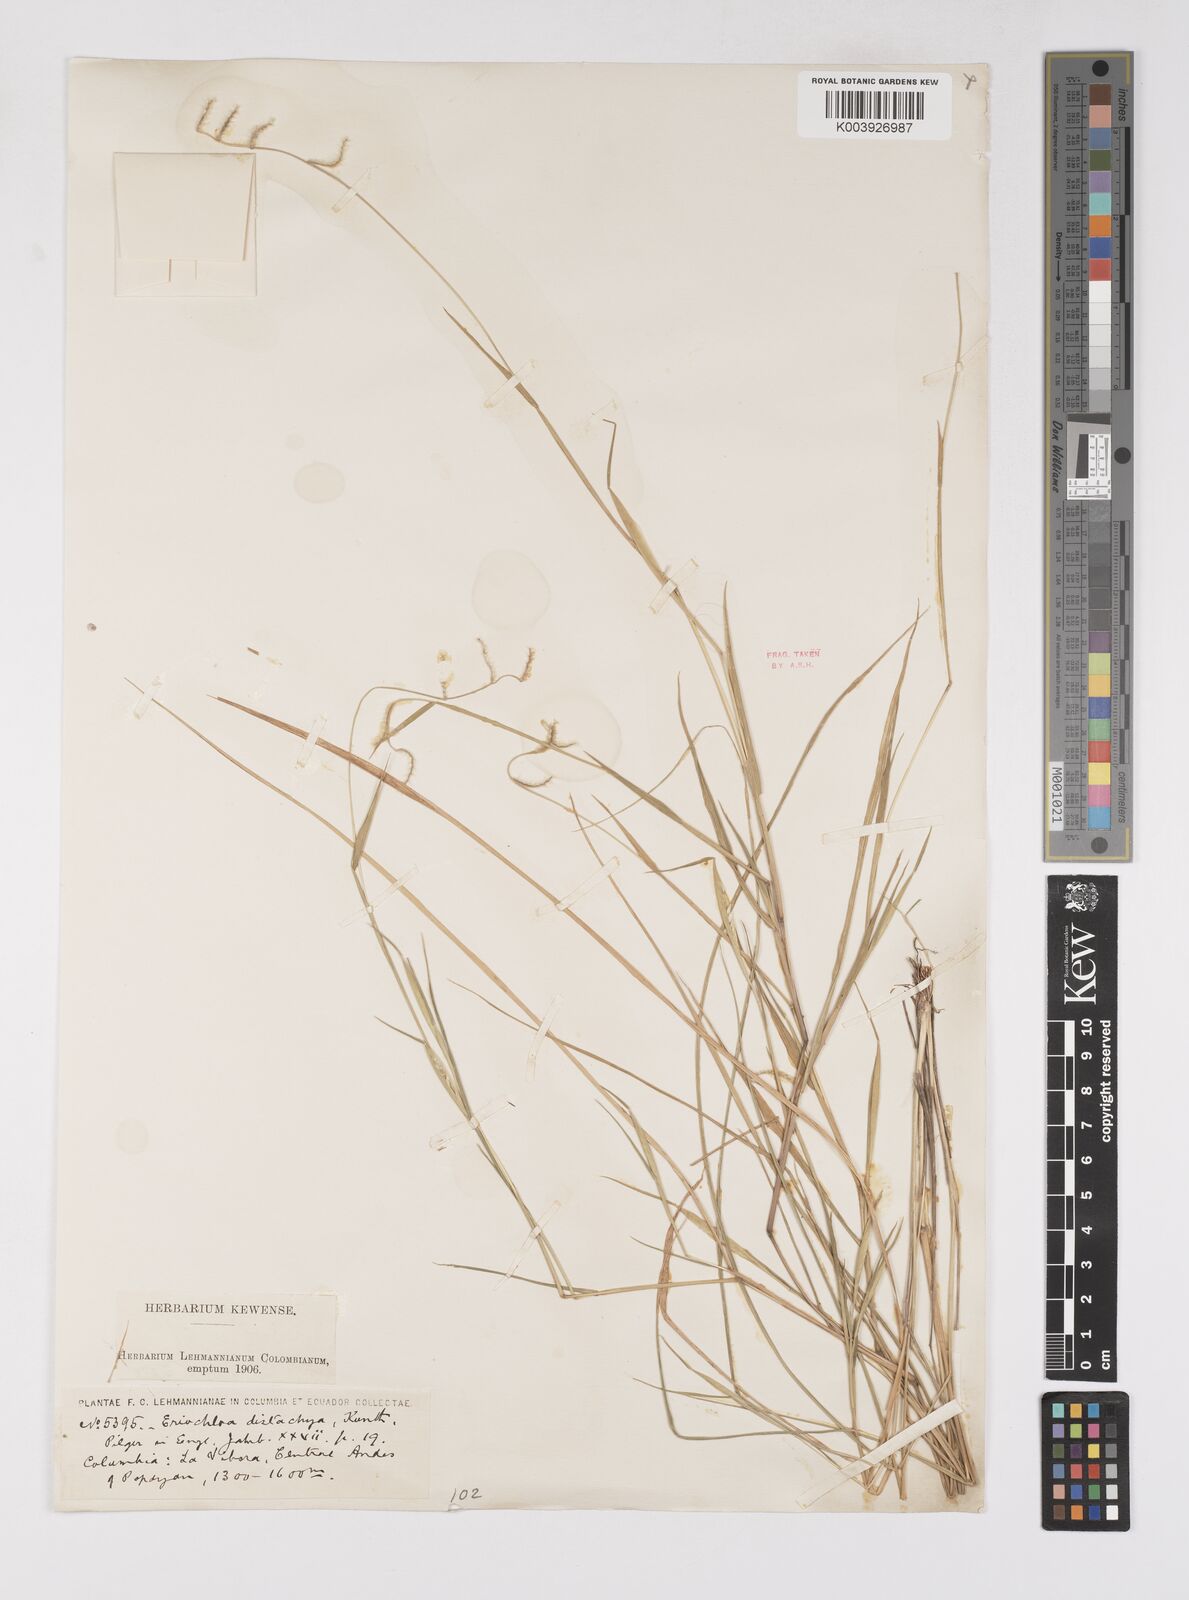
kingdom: Plantae
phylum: Tracheophyta
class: Liliopsida
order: Poales
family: Poaceae
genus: Eriochloa
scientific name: Eriochloa distachya
